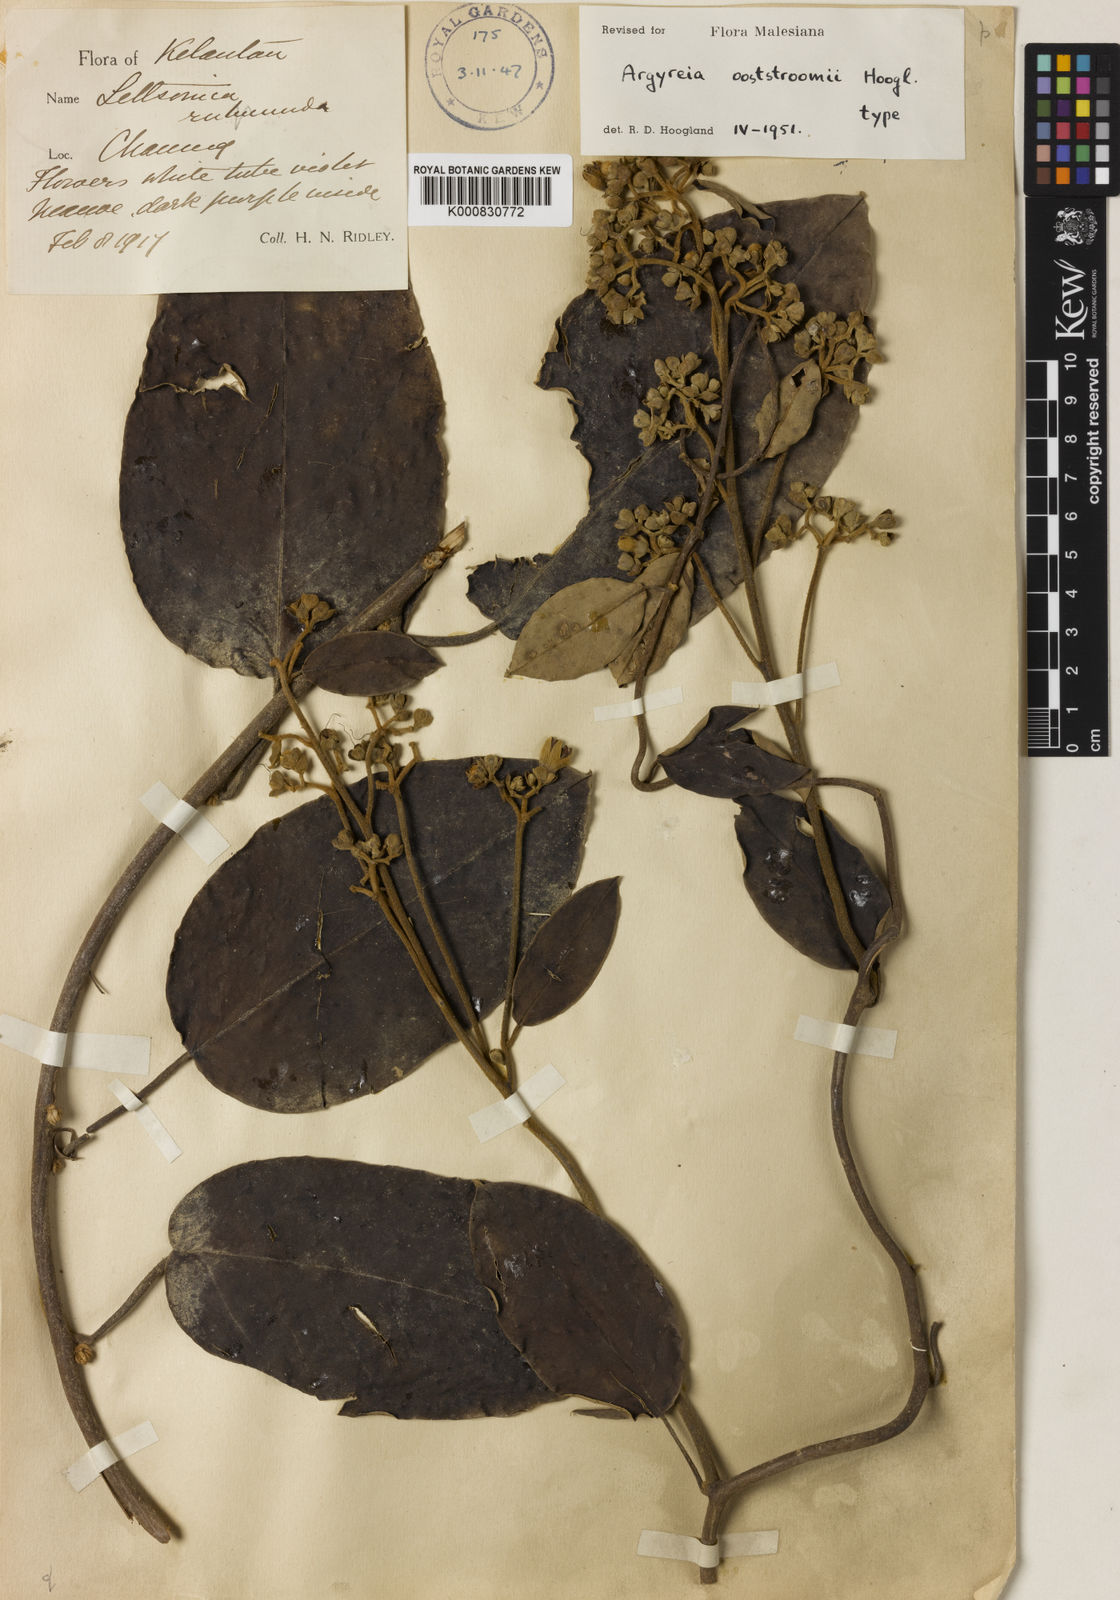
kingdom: Plantae
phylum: Tracheophyta
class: Magnoliopsida
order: Solanales
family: Convolvulaceae
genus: Argyreia
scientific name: Argyreia ooststroomii
